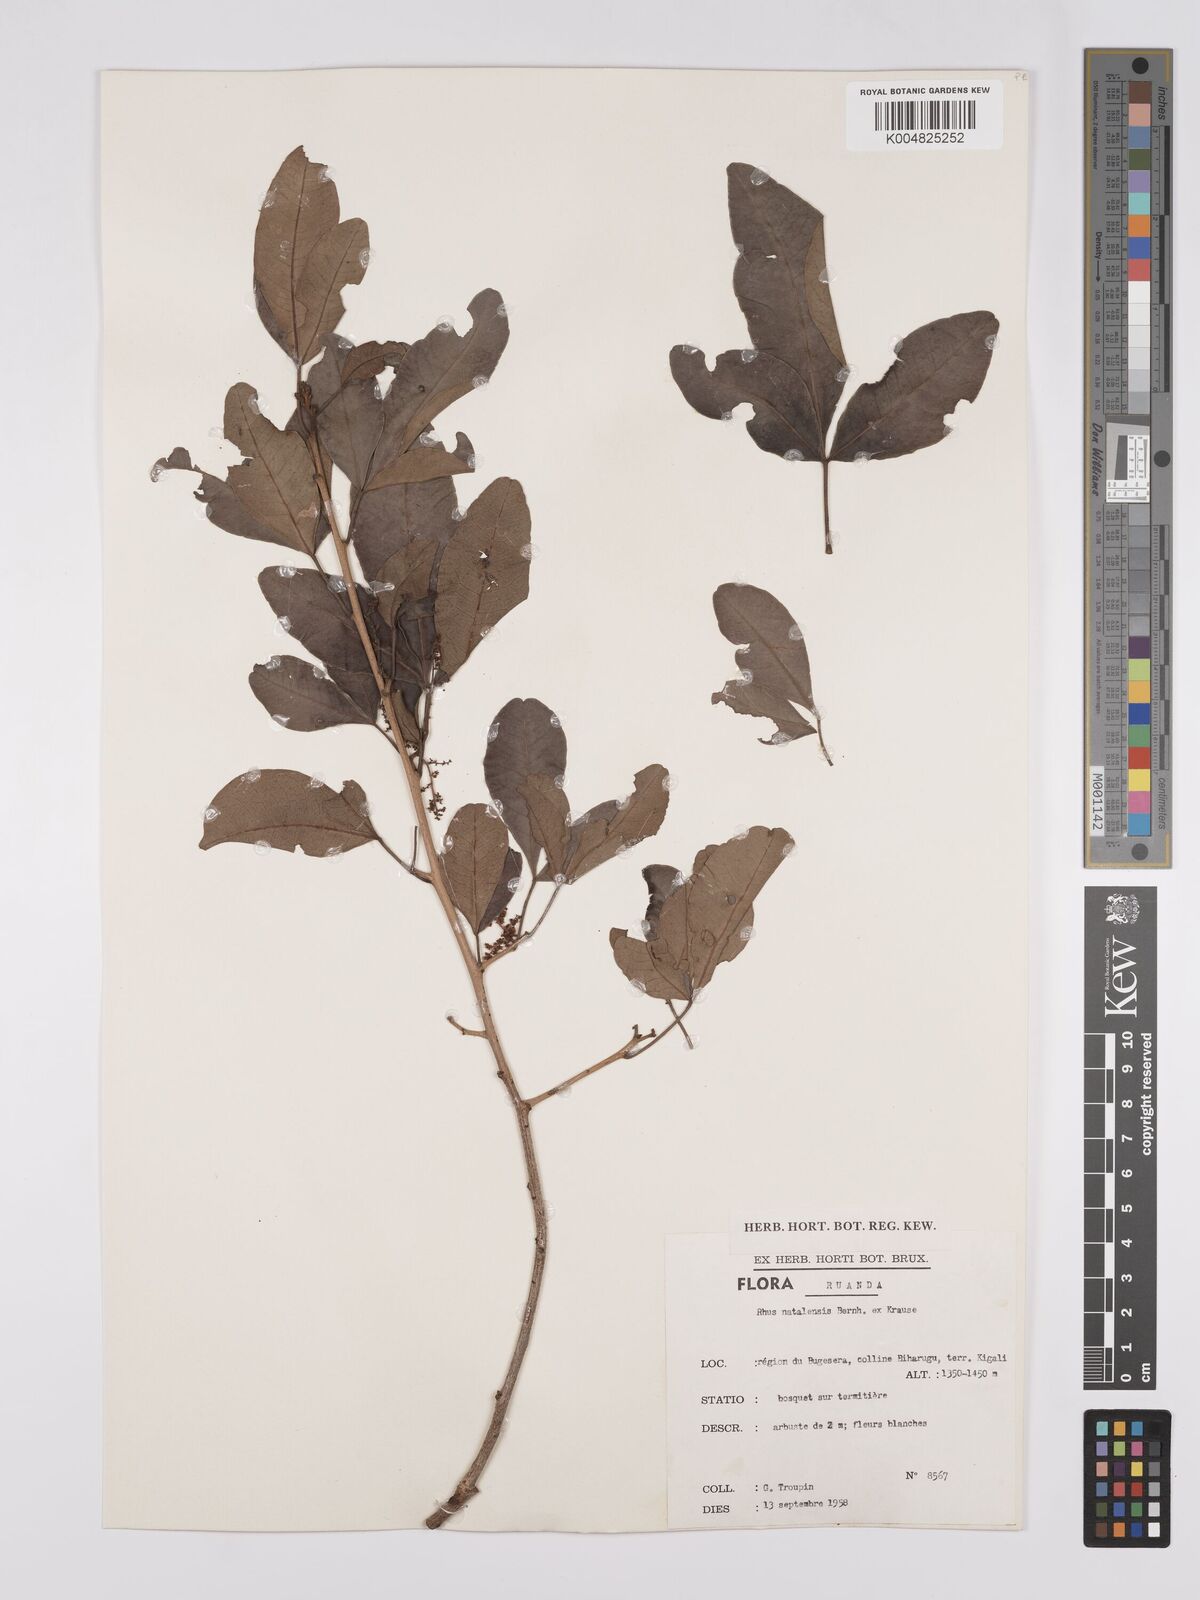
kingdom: Plantae
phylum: Tracheophyta
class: Magnoliopsida
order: Sapindales
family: Anacardiaceae
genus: Searsia
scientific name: Searsia natalensis
